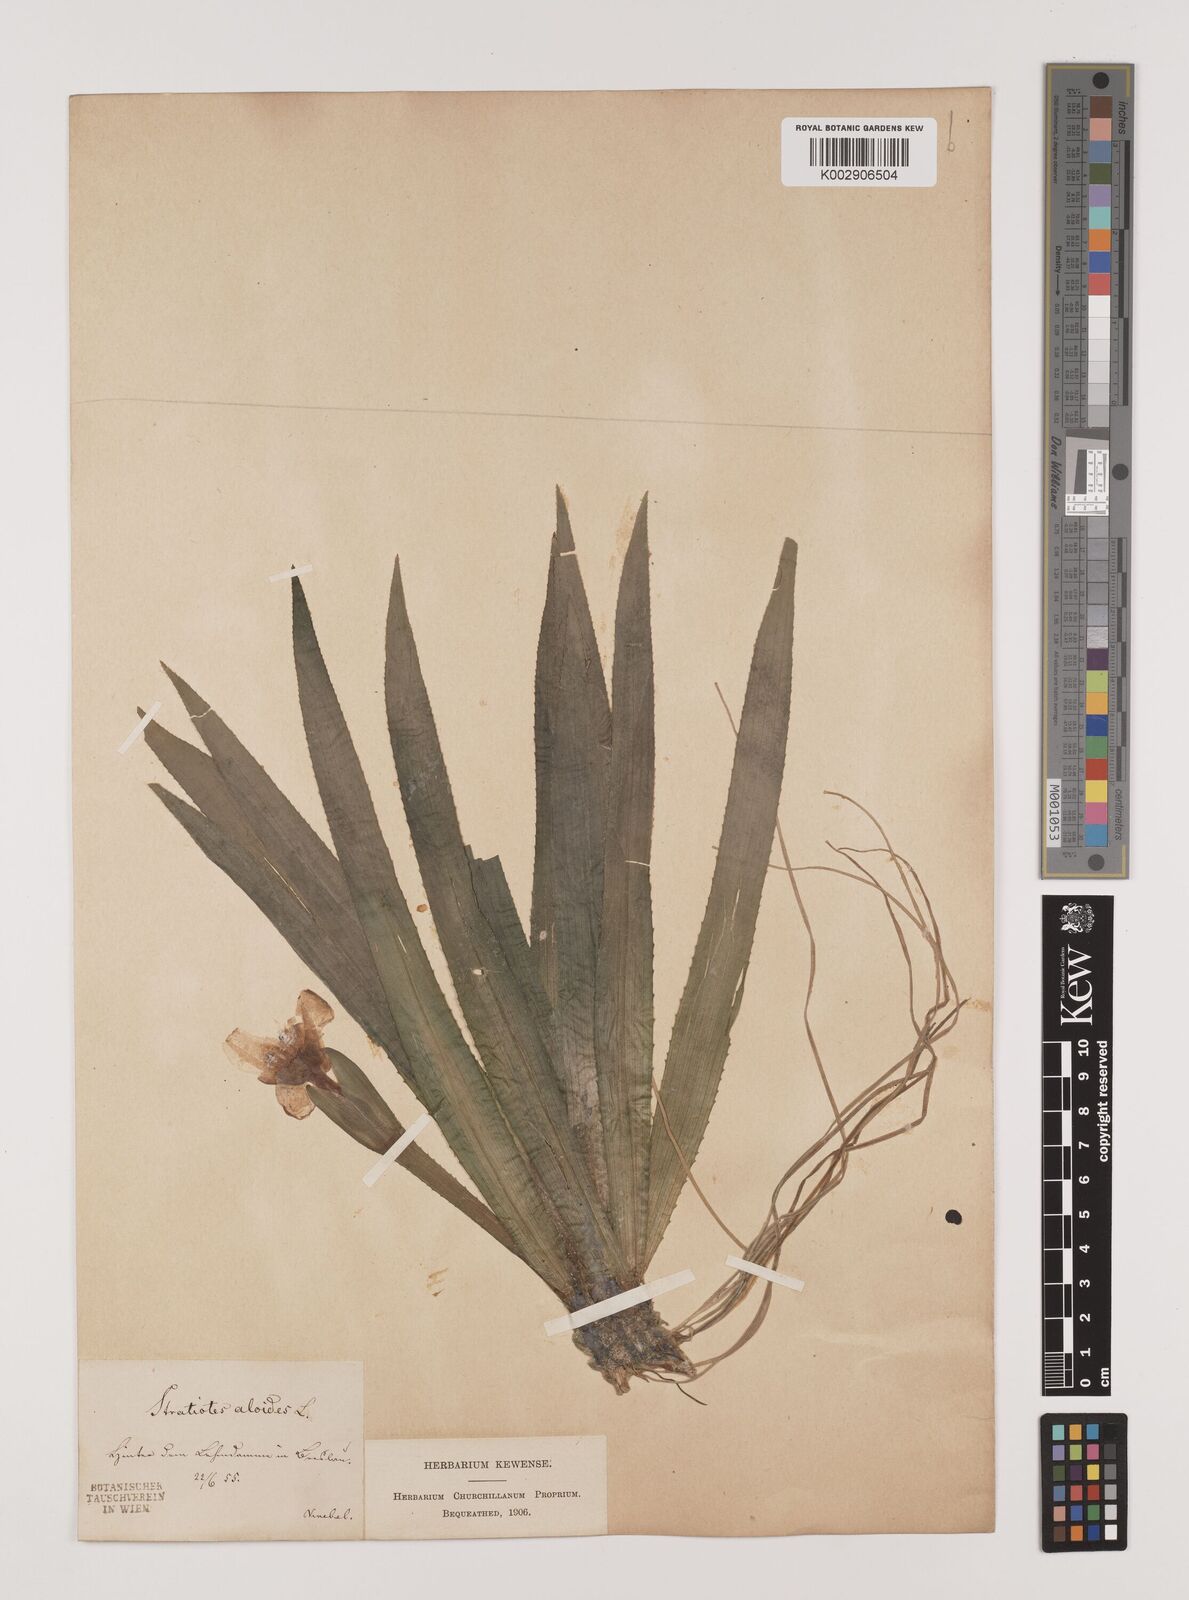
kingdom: Plantae
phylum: Tracheophyta
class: Liliopsida
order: Alismatales
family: Hydrocharitaceae
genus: Stratiotes
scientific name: Stratiotes aloides
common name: Water-soldier
